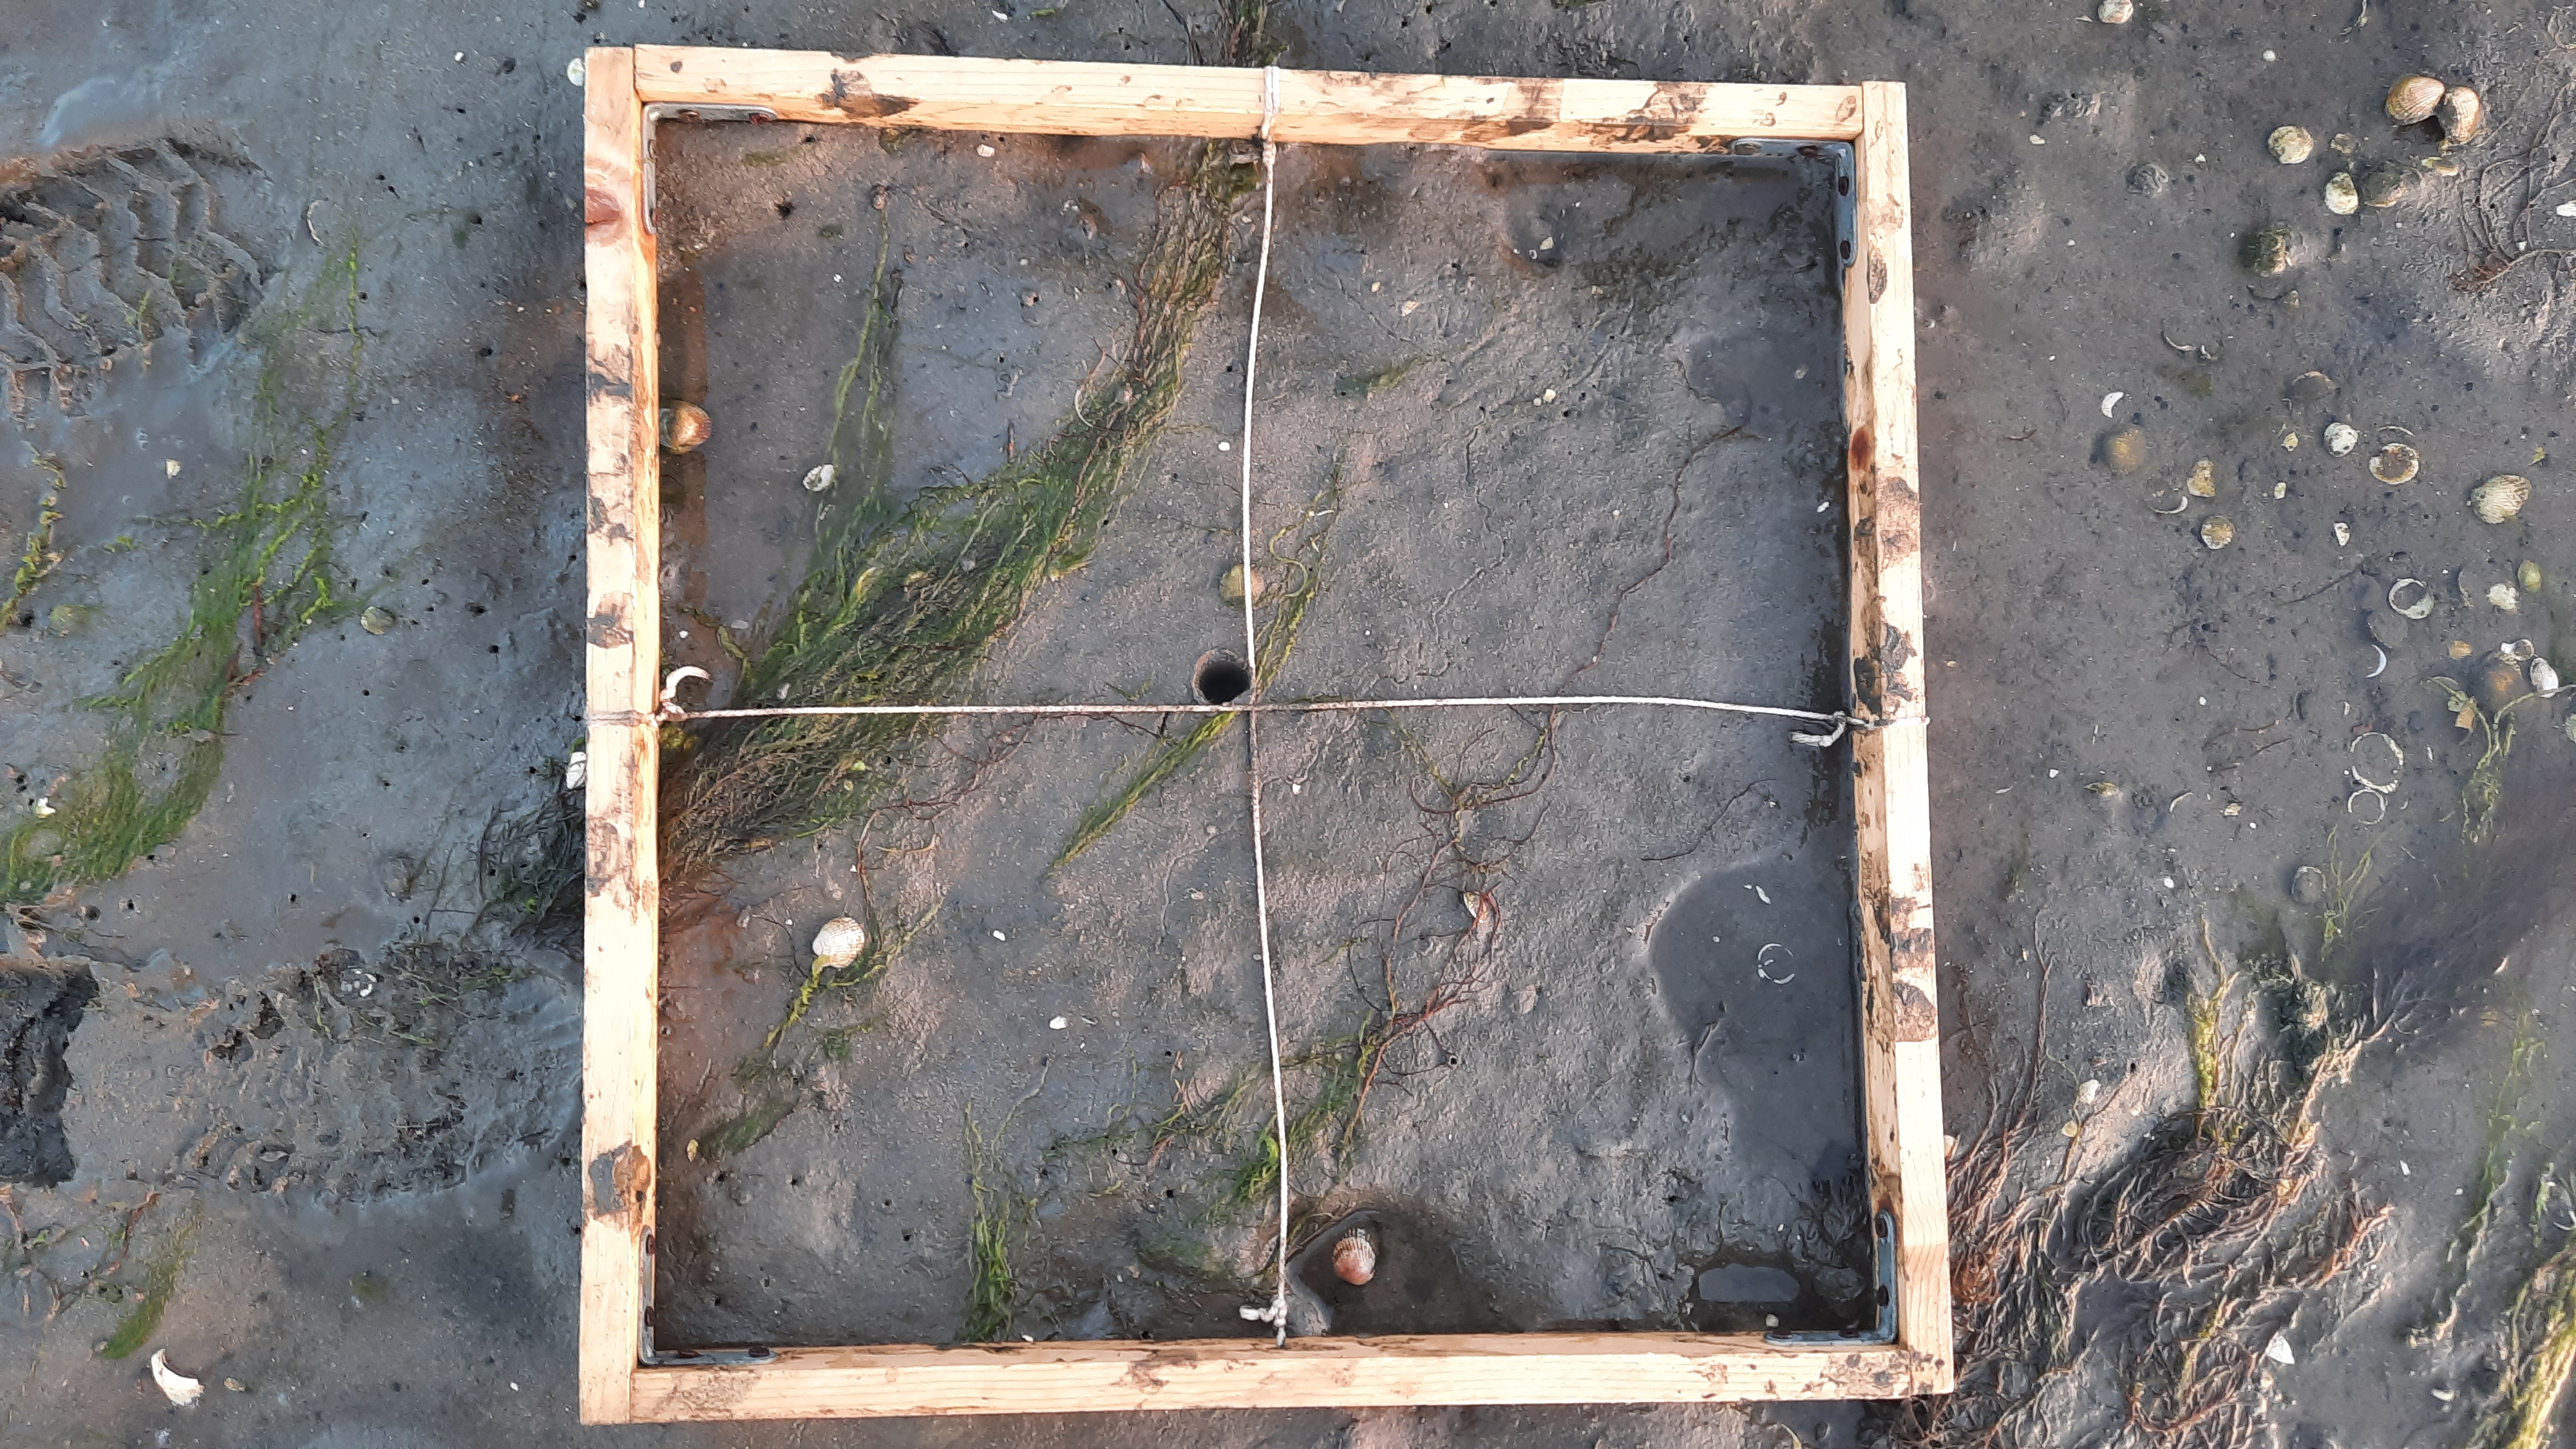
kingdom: Plantae
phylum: Tracheophyta
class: Liliopsida
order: Alismatales
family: Zosteraceae
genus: Zostera
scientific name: Zostera noltii
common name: Dwarf eelgrass
